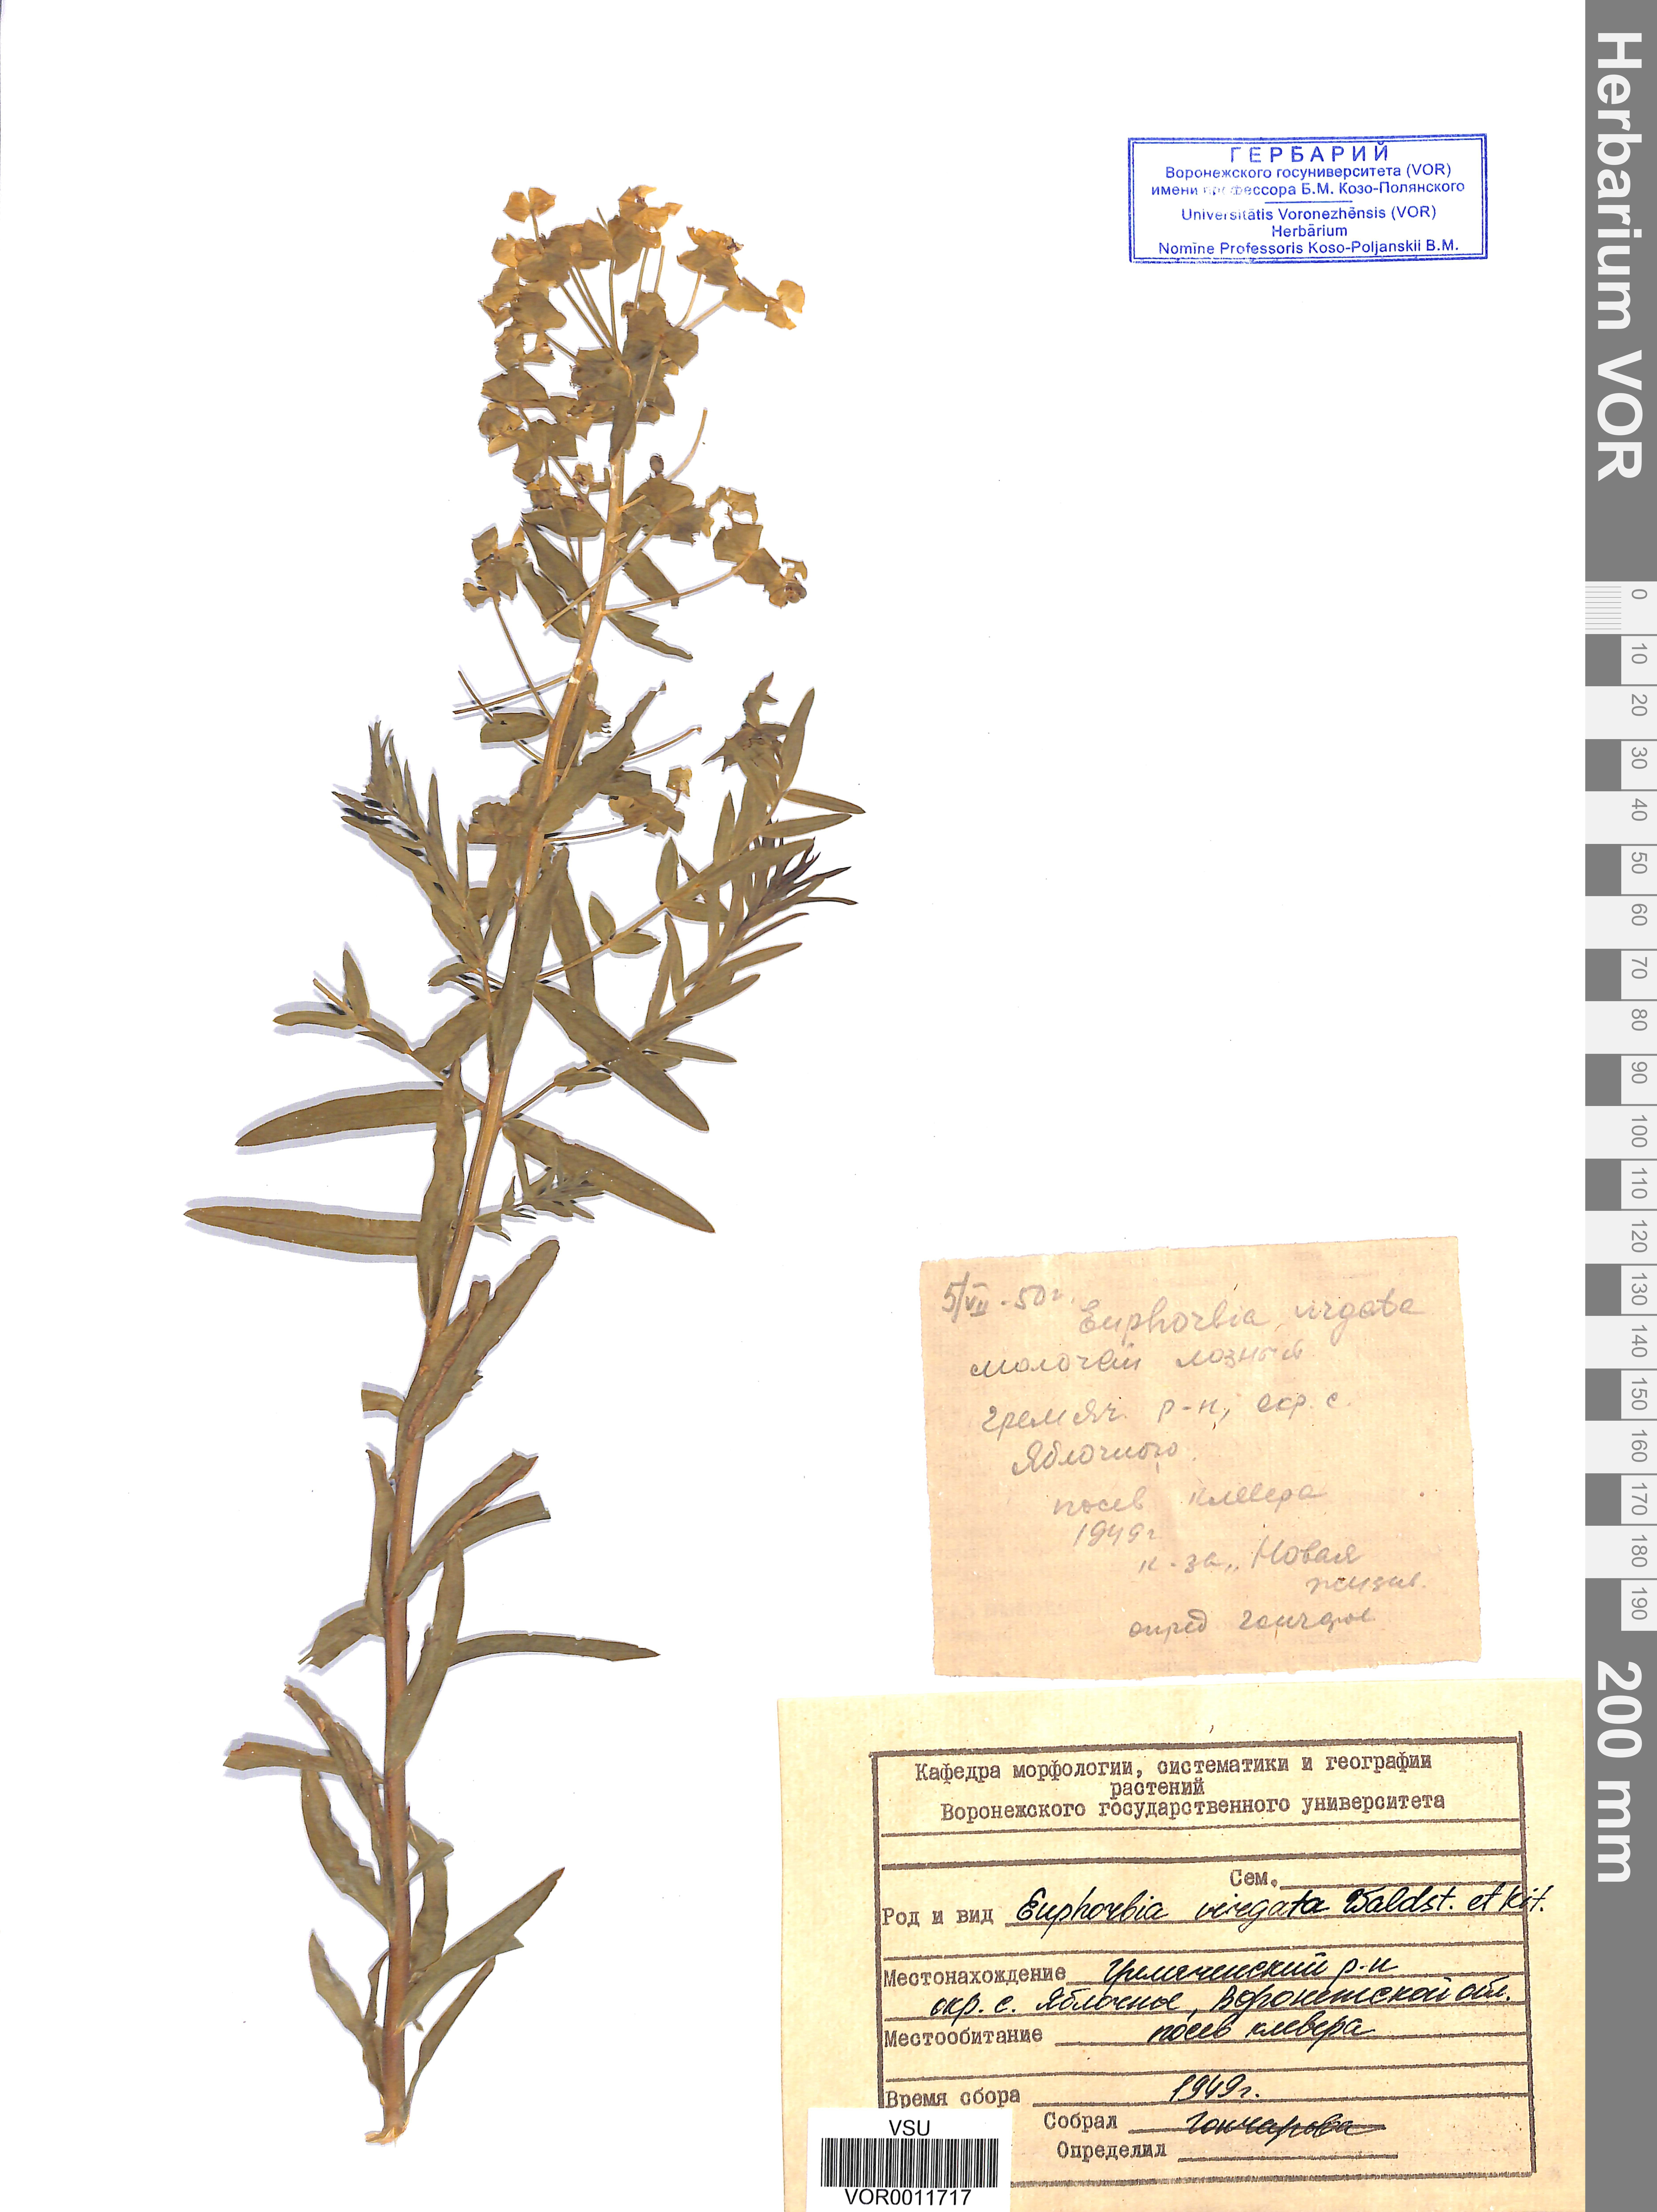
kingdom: Plantae
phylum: Tracheophyta
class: Magnoliopsida
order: Malpighiales
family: Euphorbiaceae
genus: Euphorbia
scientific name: Euphorbia virgata
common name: Leafy spurge
